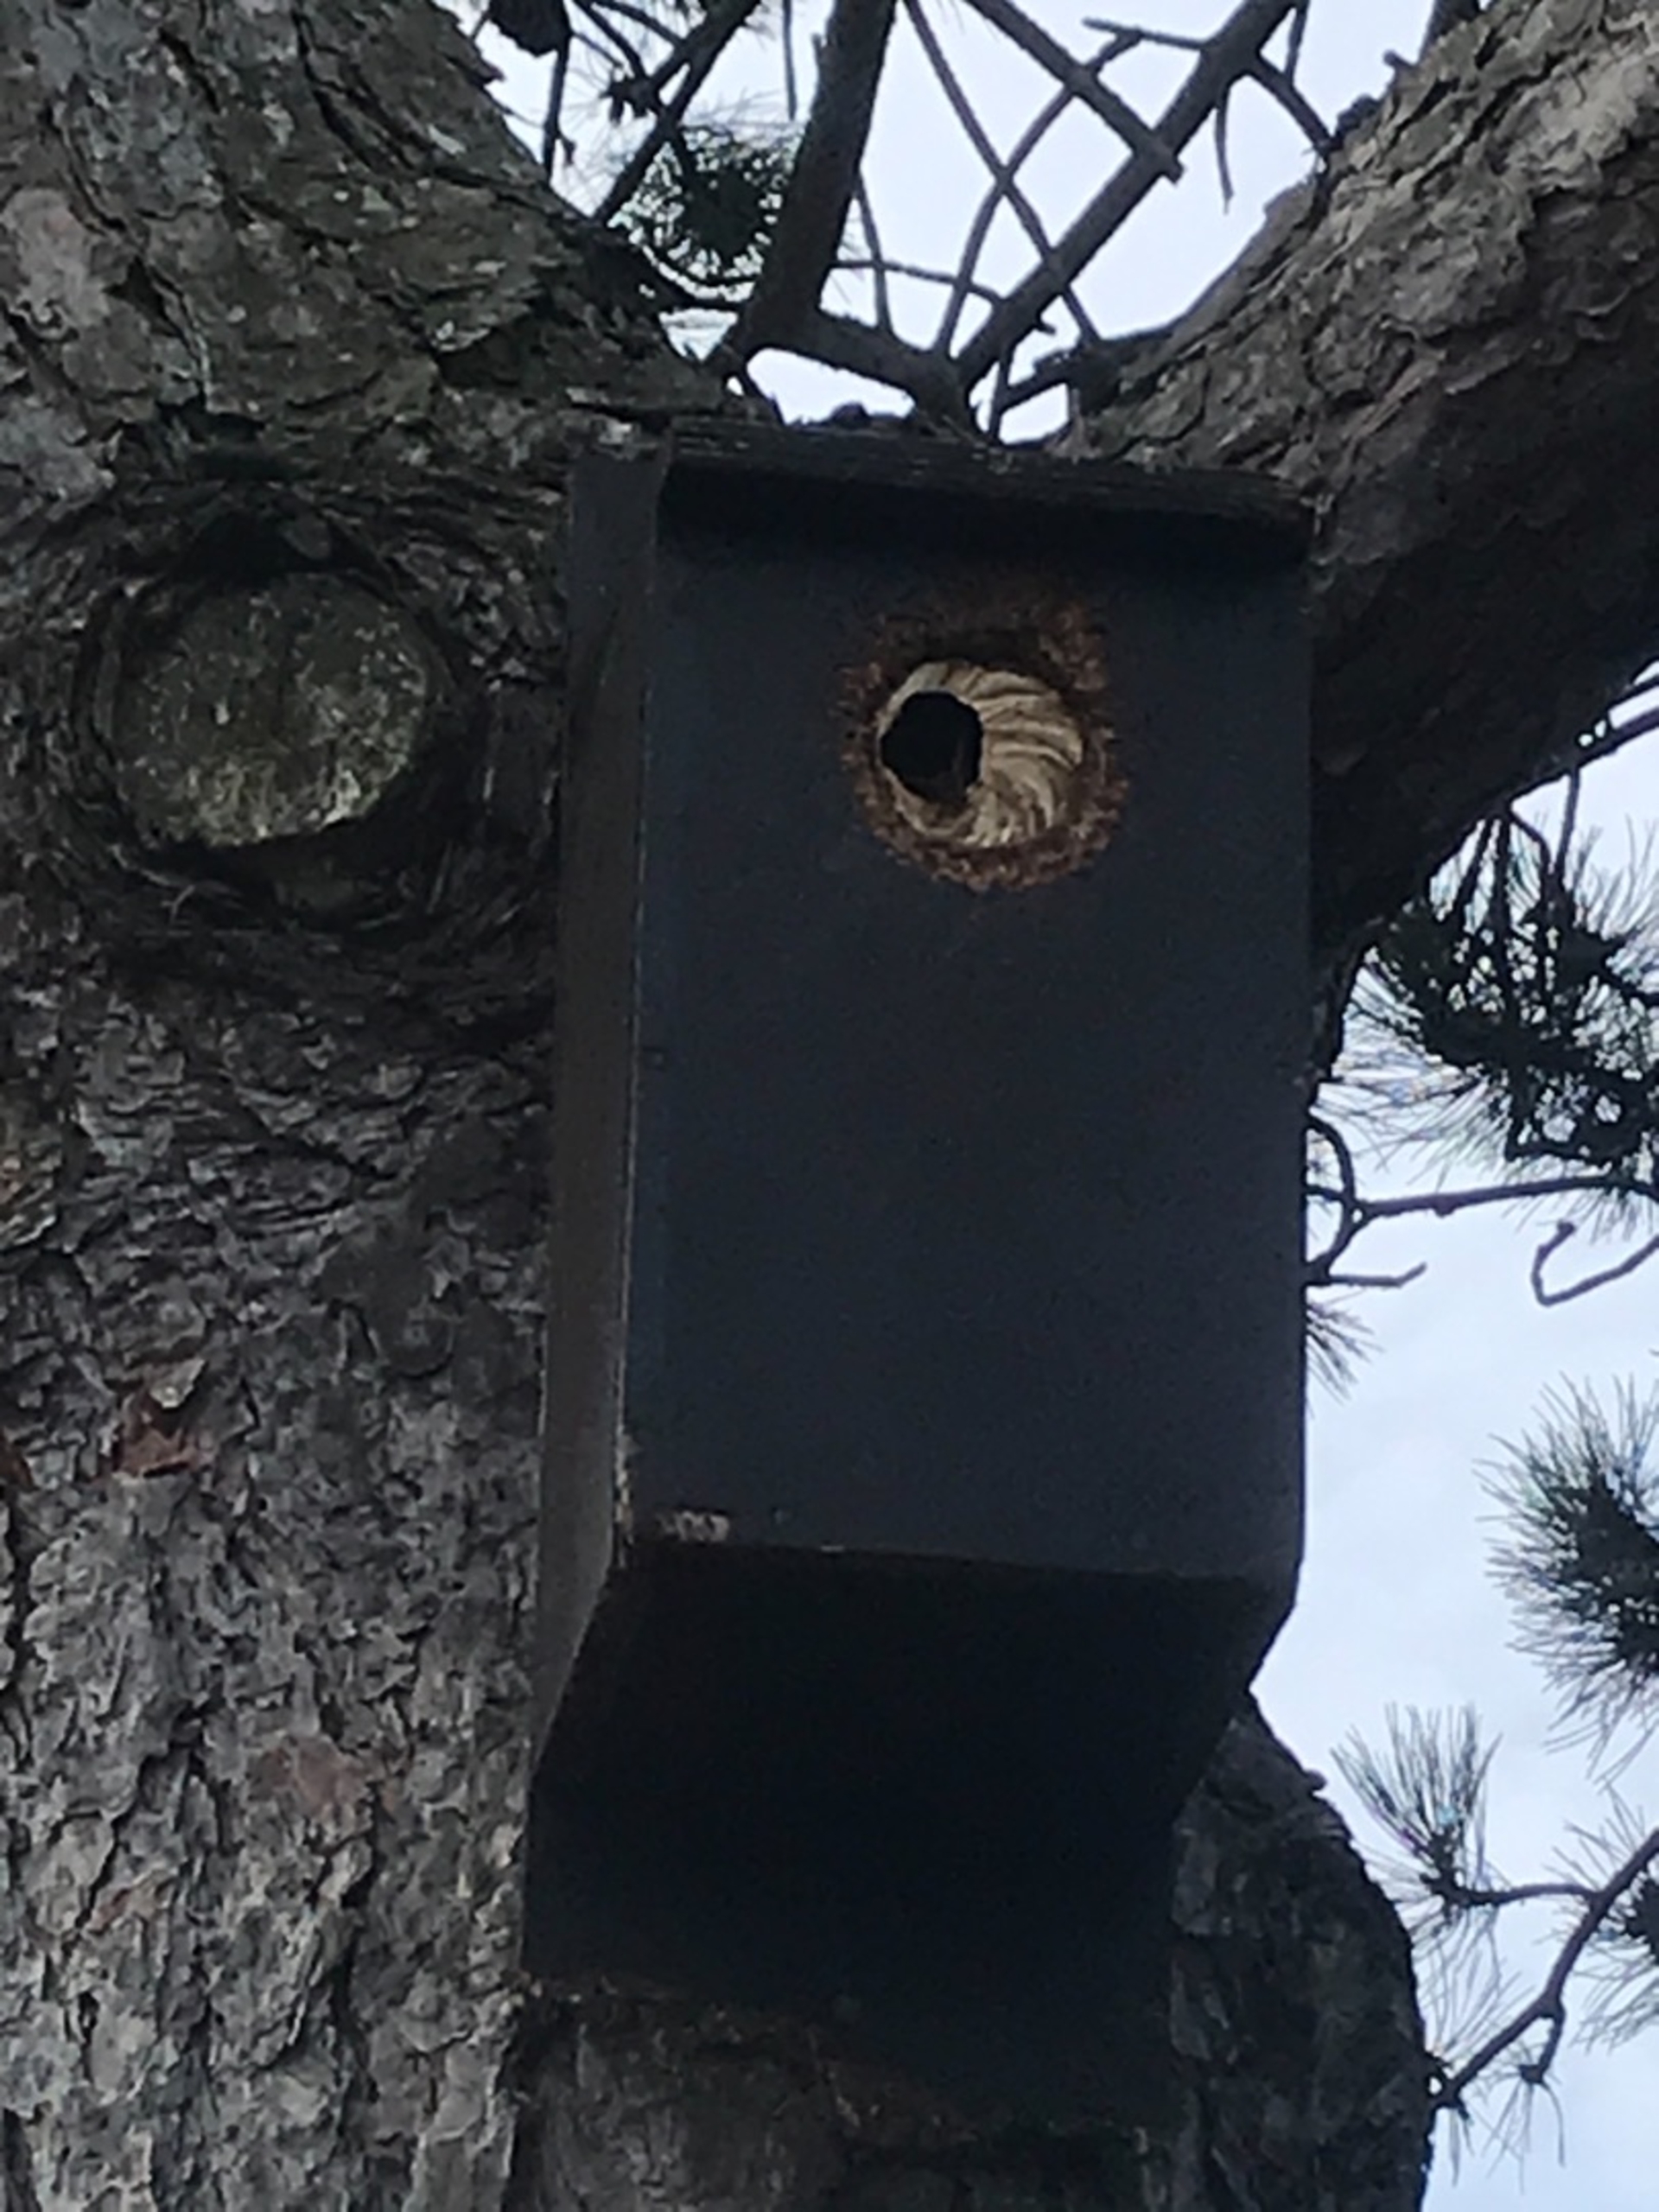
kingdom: Animalia
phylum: Arthropoda
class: Insecta
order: Hymenoptera
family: Vespidae
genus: Vespa
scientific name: Vespa crabro
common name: Stor gedehams
